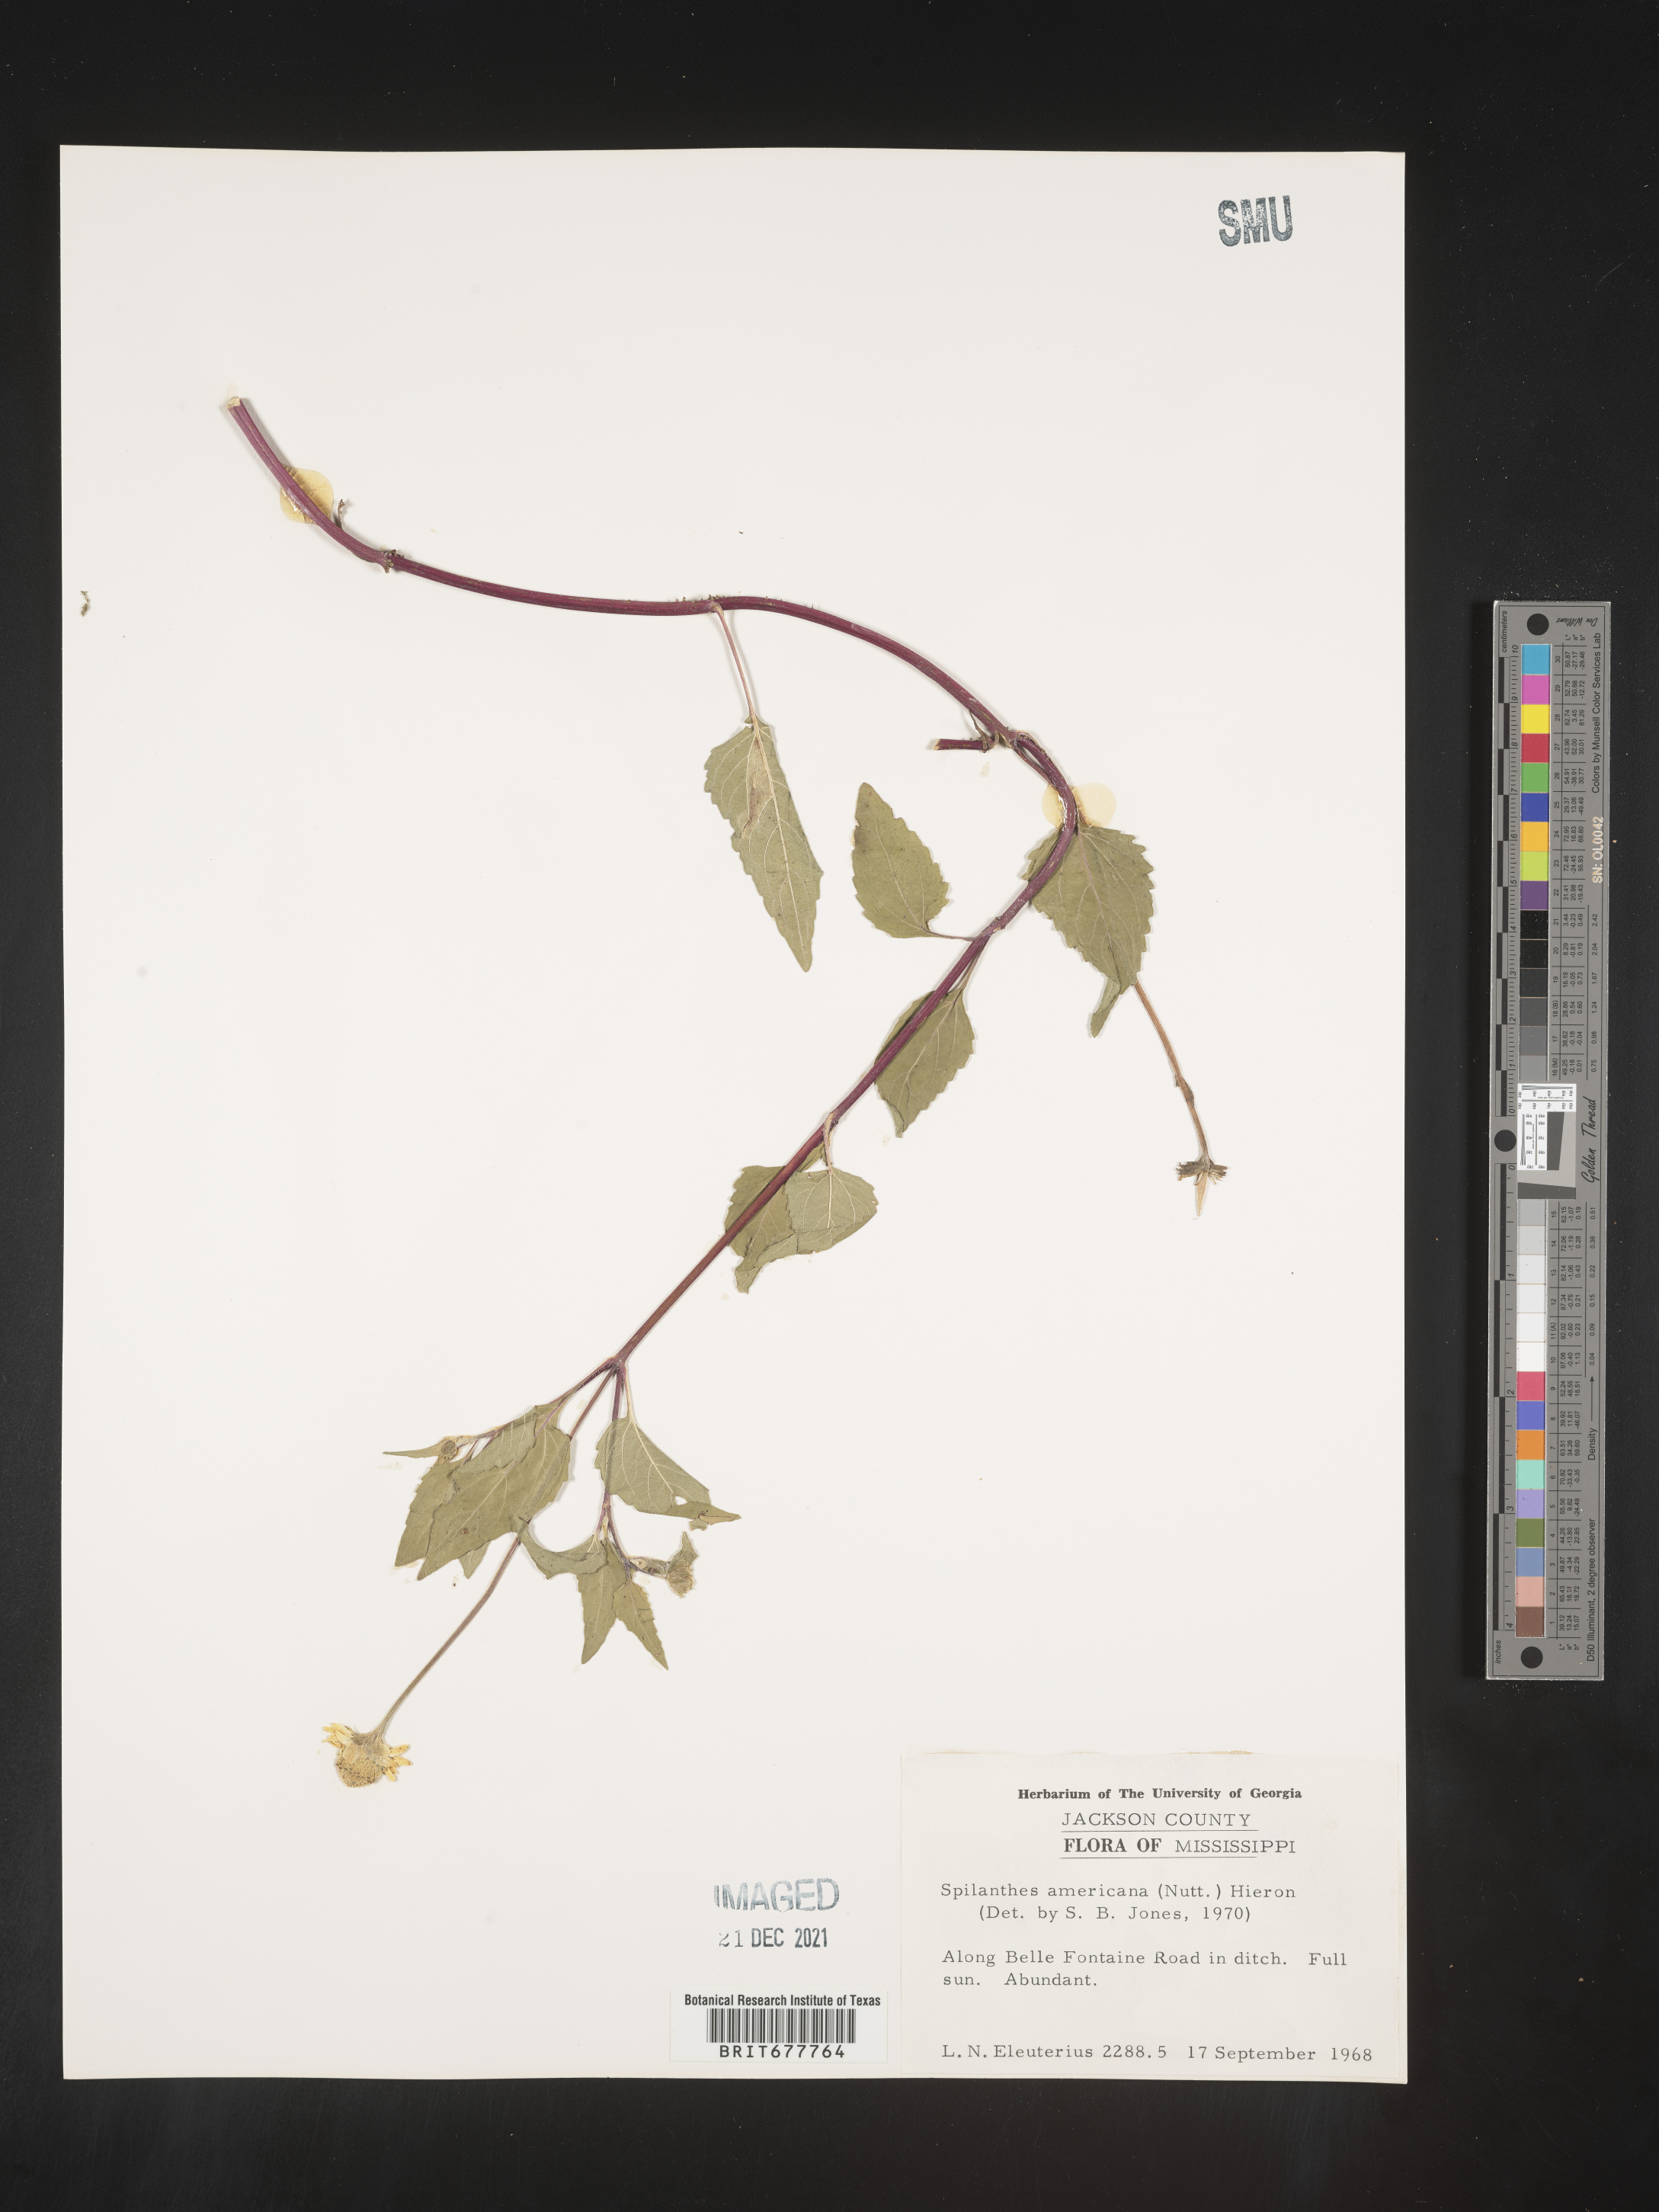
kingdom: Plantae
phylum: Tracheophyta
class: Magnoliopsida
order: Asterales
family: Asteraceae
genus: Spilanthes
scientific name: Spilanthes
